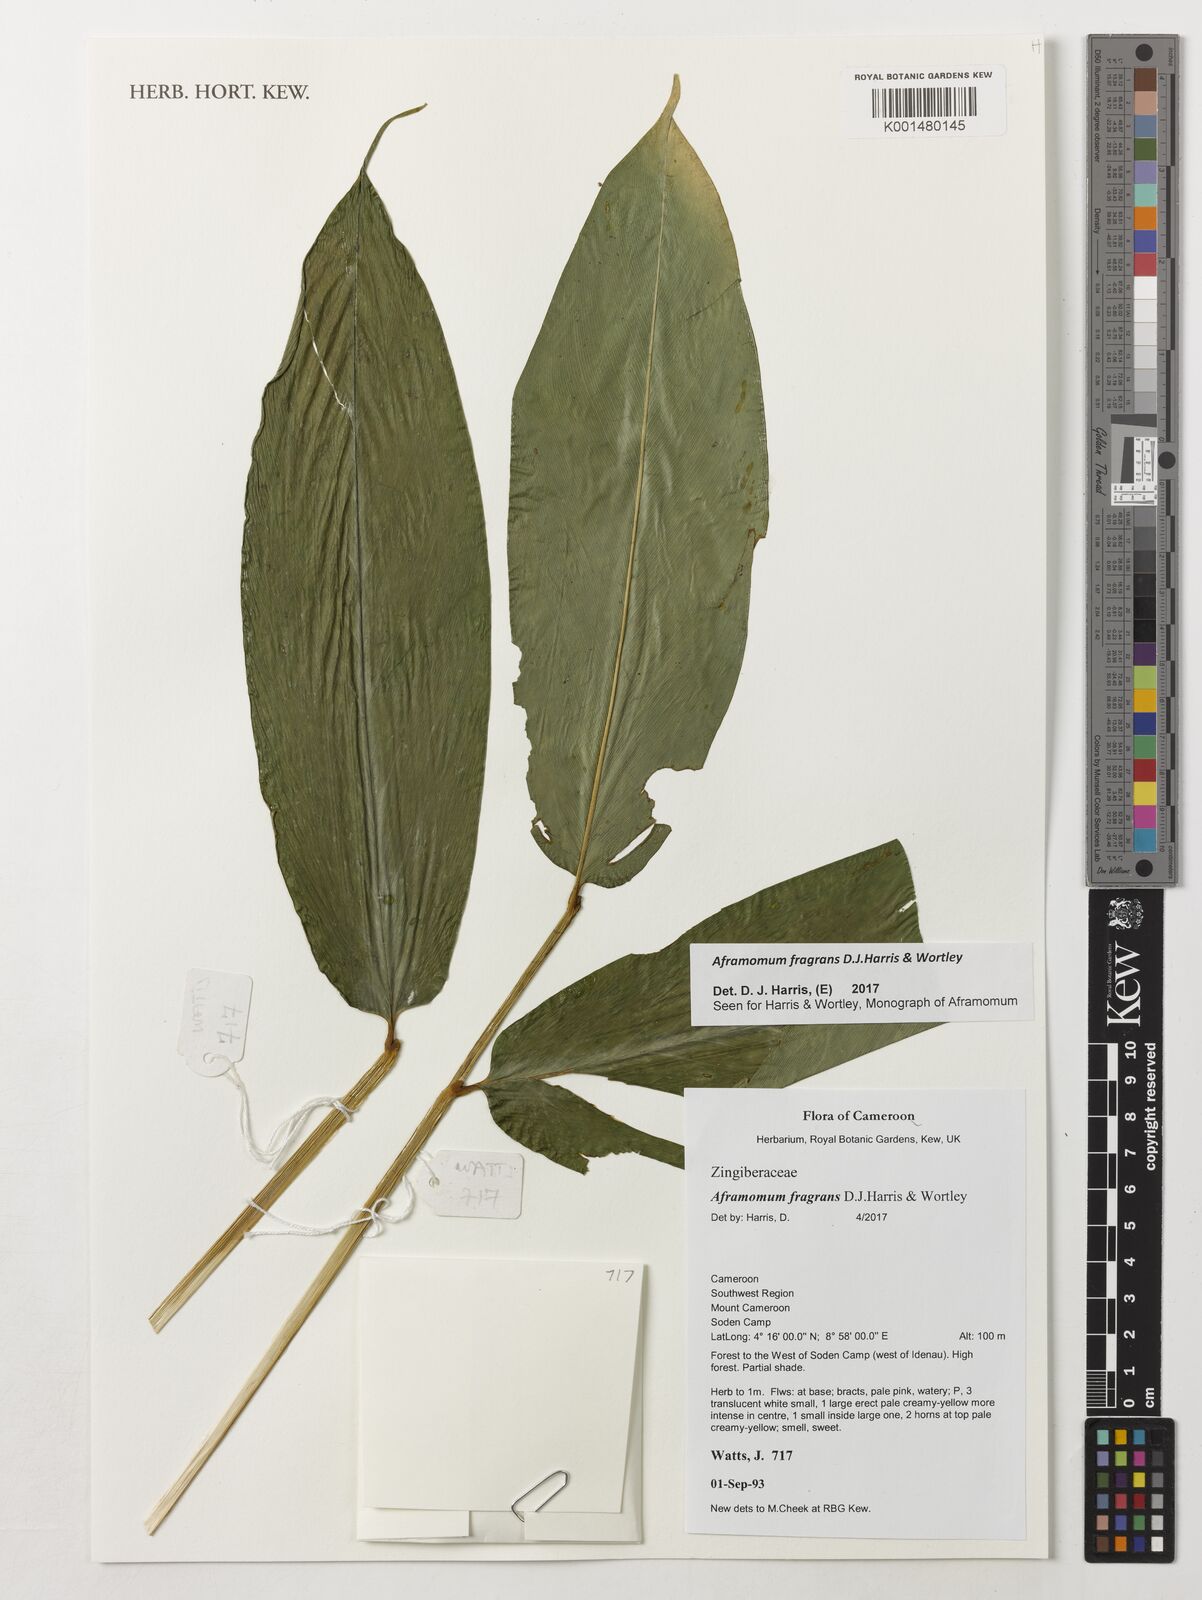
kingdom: Plantae
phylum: Tracheophyta
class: Liliopsida
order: Zingiberales
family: Zingiberaceae
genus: Aframomum
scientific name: Aframomum fragrans
